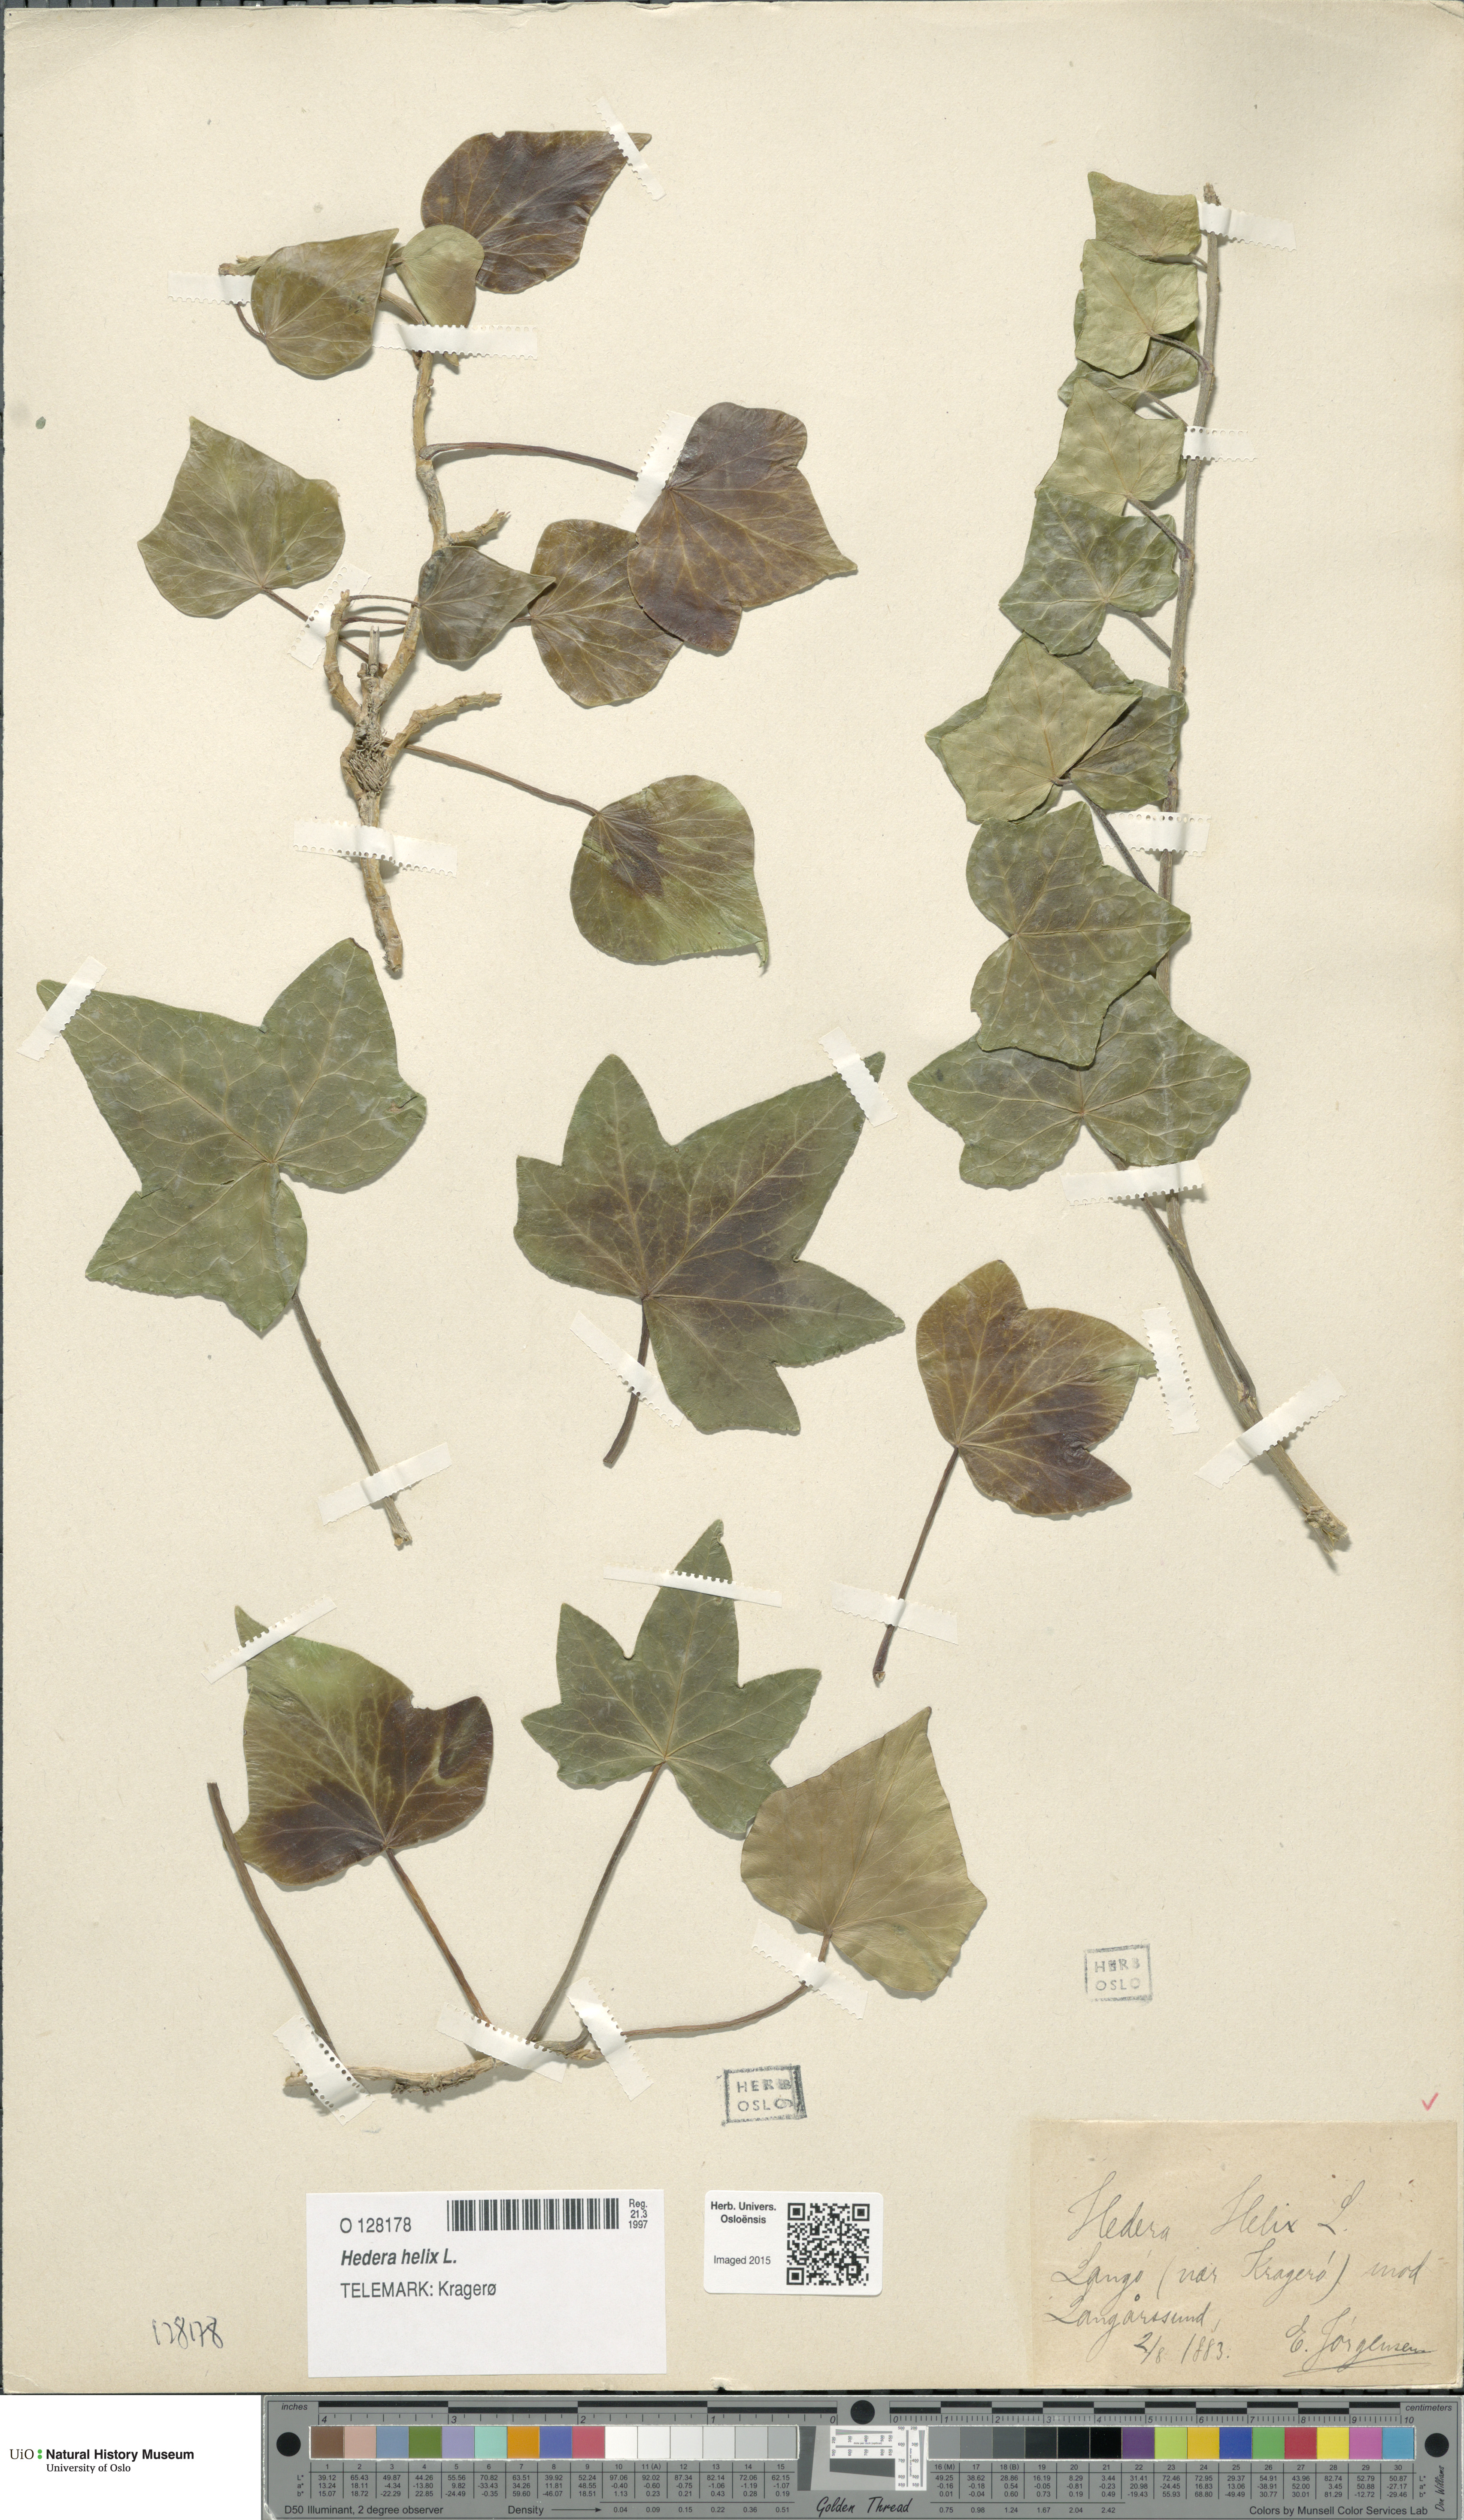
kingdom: Plantae
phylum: Tracheophyta
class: Magnoliopsida
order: Apiales
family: Araliaceae
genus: Hedera
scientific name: Hedera helix
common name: Ivy
